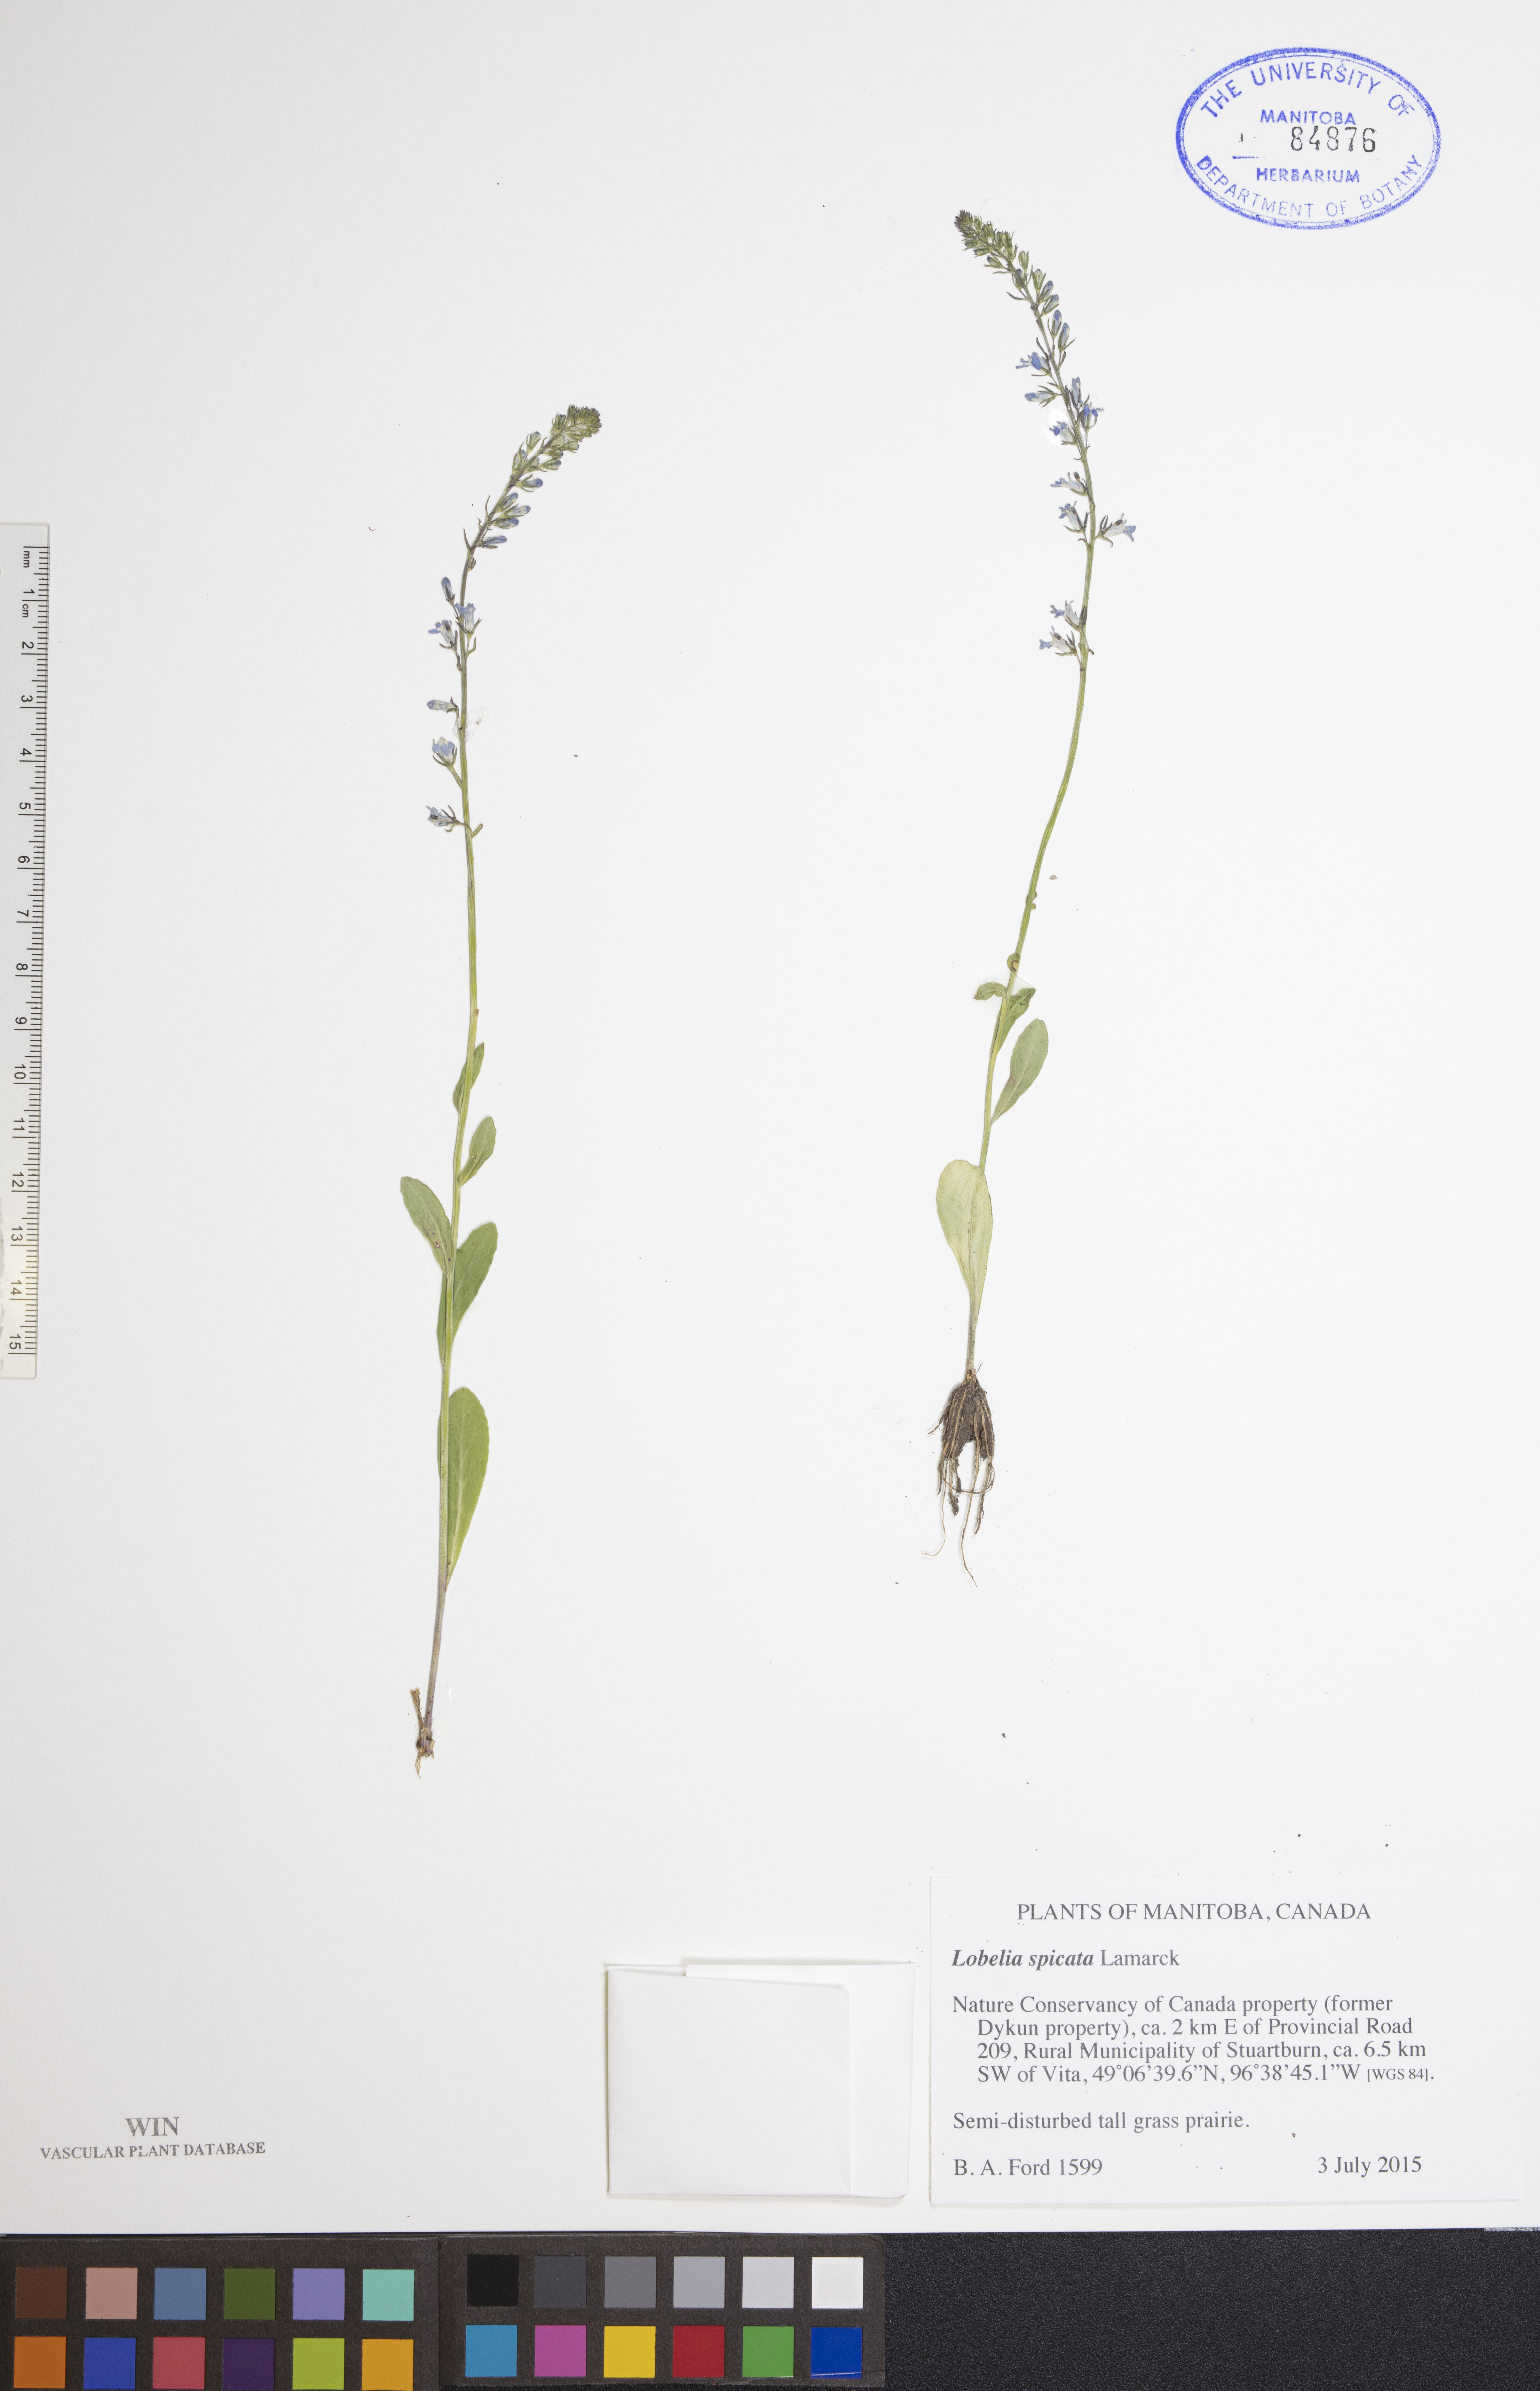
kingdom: Plantae
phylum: Tracheophyta
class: Magnoliopsida
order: Asterales
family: Campanulaceae
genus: Lobelia
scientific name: Lobelia spicata
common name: Pale-spike lobelia
